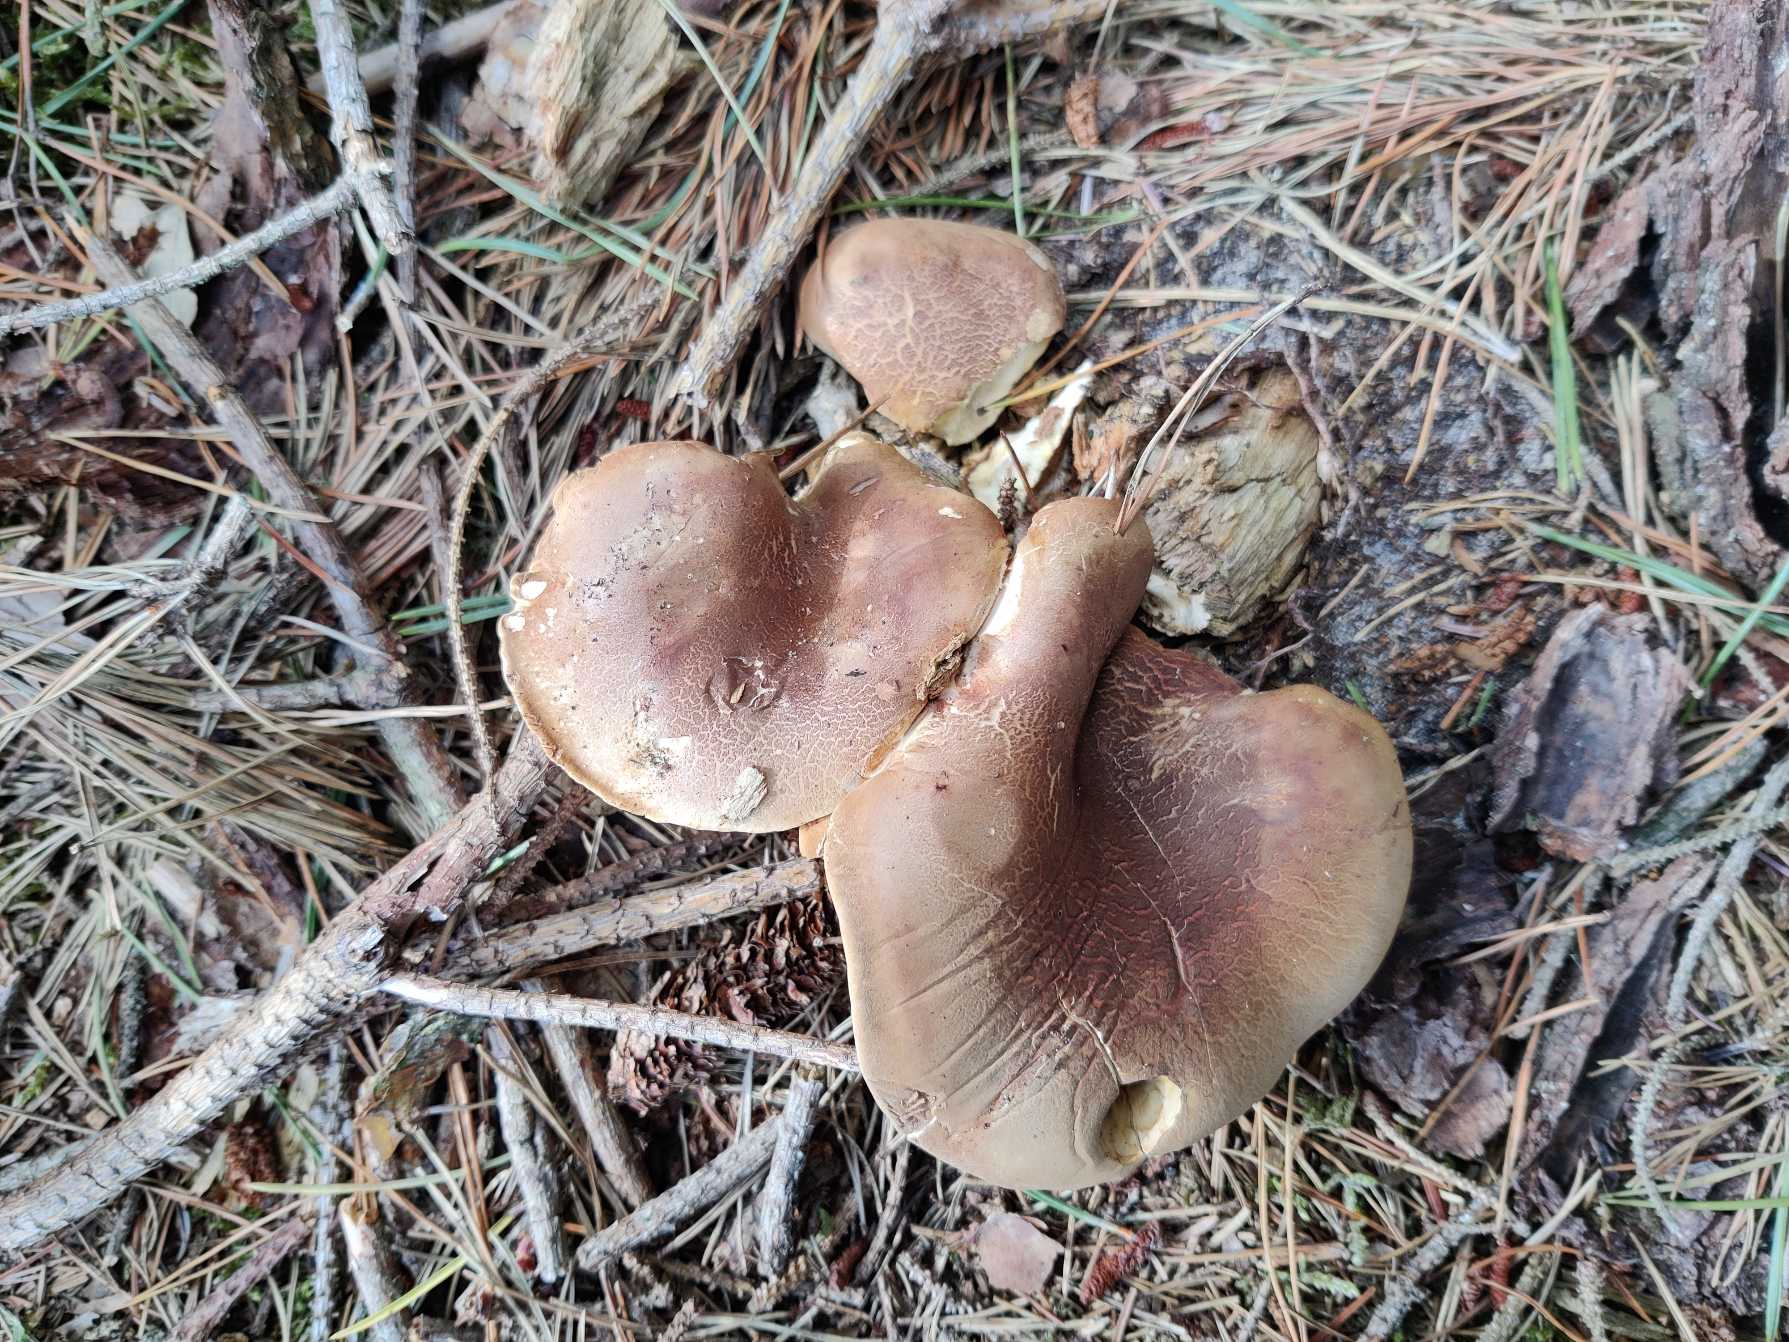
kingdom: Fungi
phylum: Basidiomycota
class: Agaricomycetes
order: Boletales
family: Tapinellaceae
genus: Tapinella
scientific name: Tapinella atrotomentosa
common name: Sortfiltet viftesvamp
